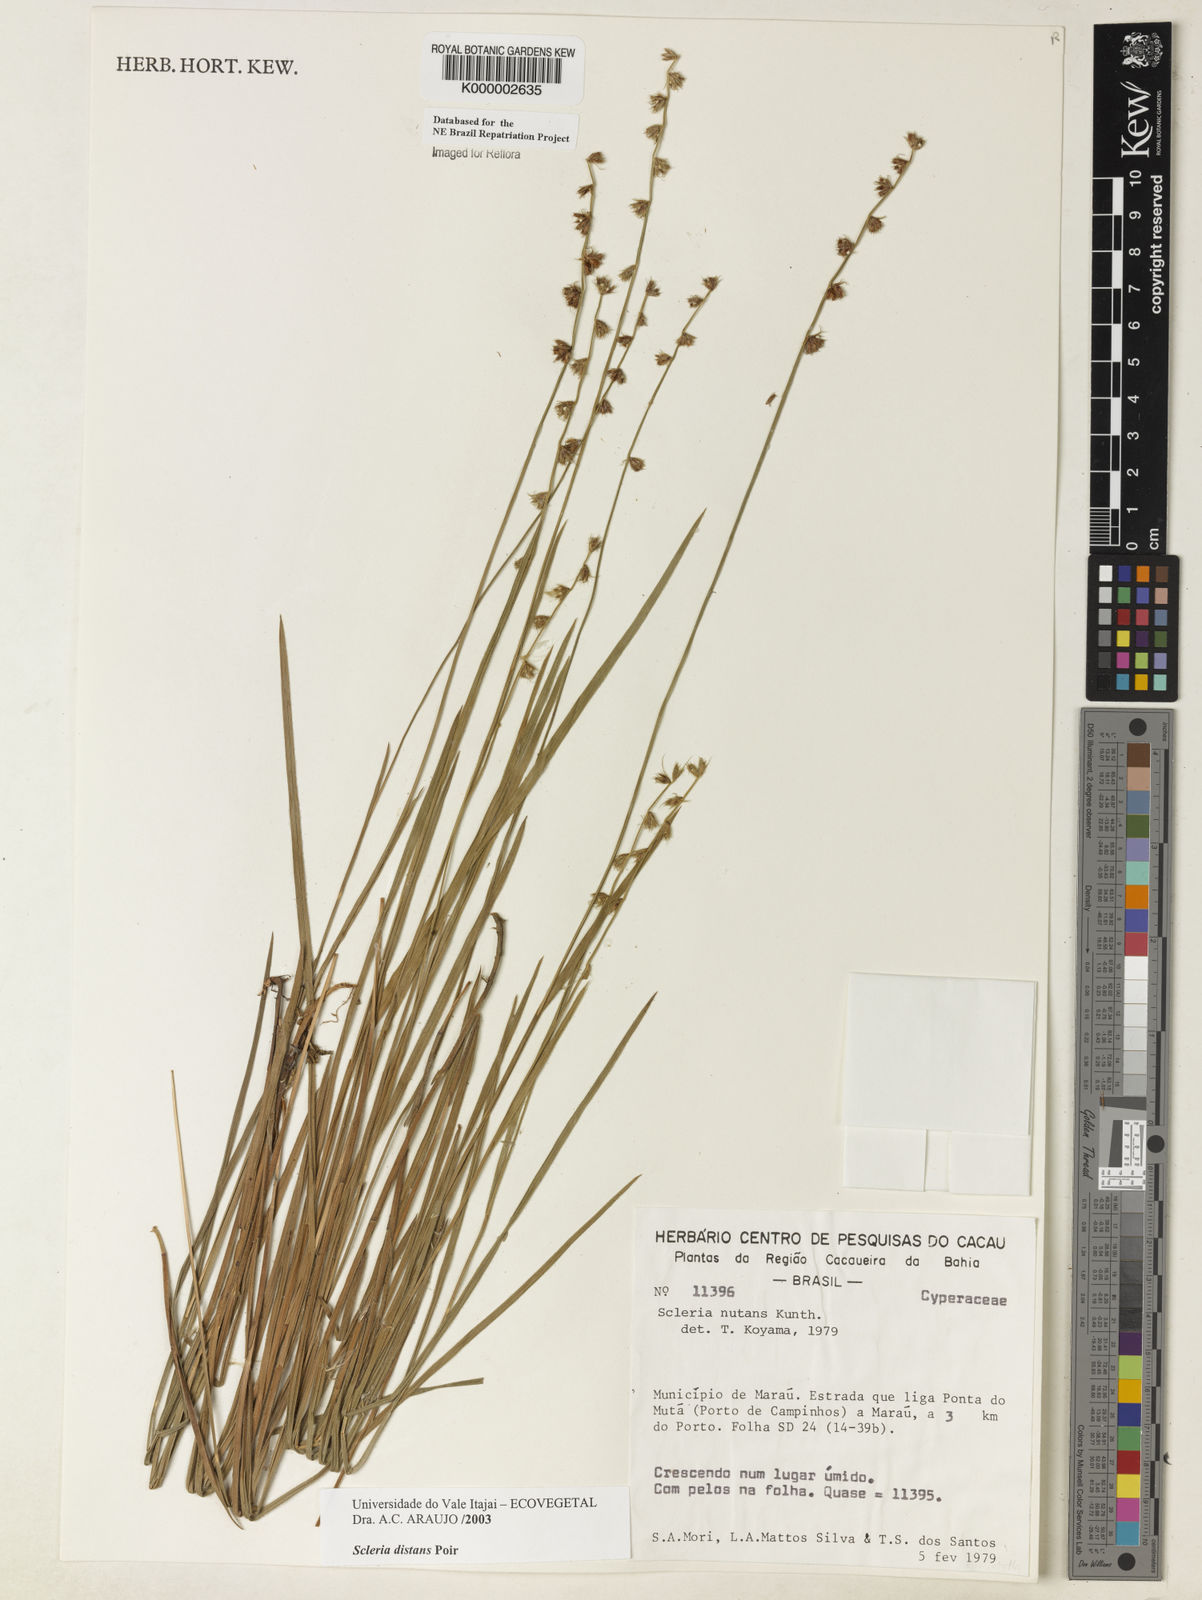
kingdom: Plantae
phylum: Tracheophyta
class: Liliopsida
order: Poales
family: Cyperaceae
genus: Scleria
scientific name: Scleria distans
